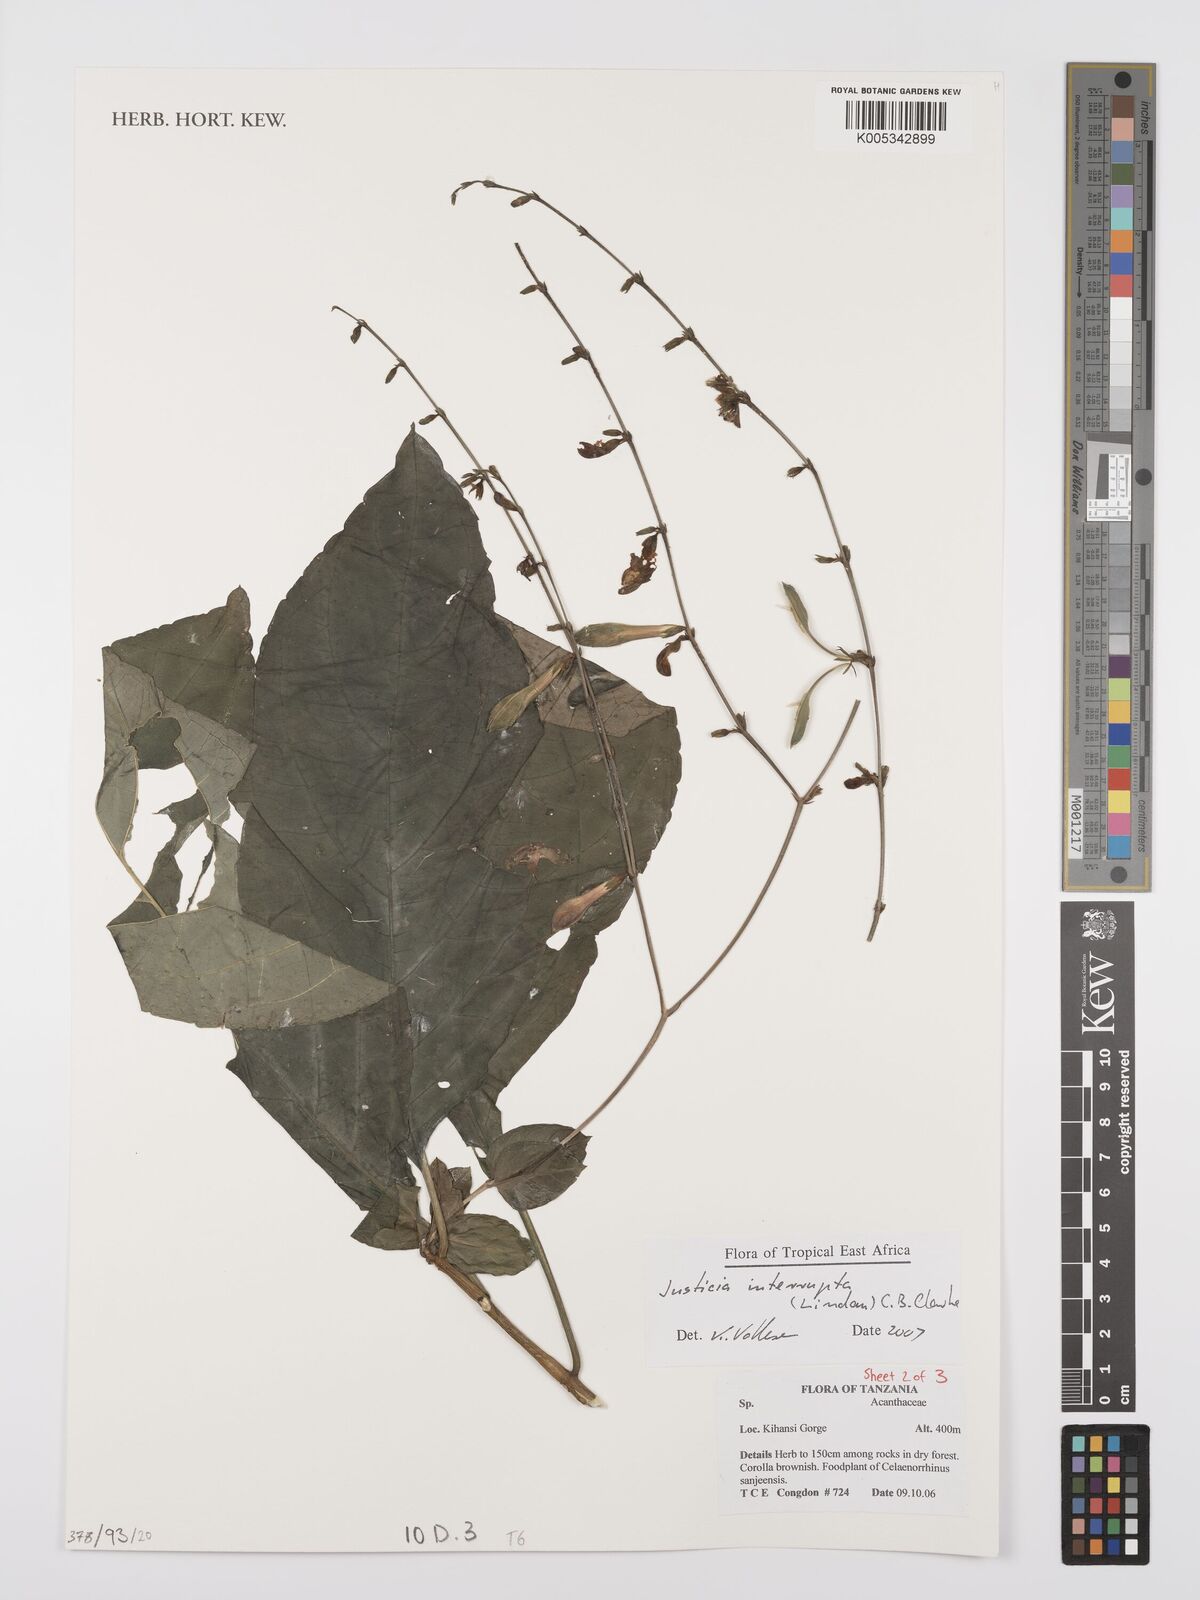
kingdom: Plantae
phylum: Tracheophyta
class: Magnoliopsida
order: Lamiales
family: Acanthaceae
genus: Justicia
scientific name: Justicia plectranthoides
